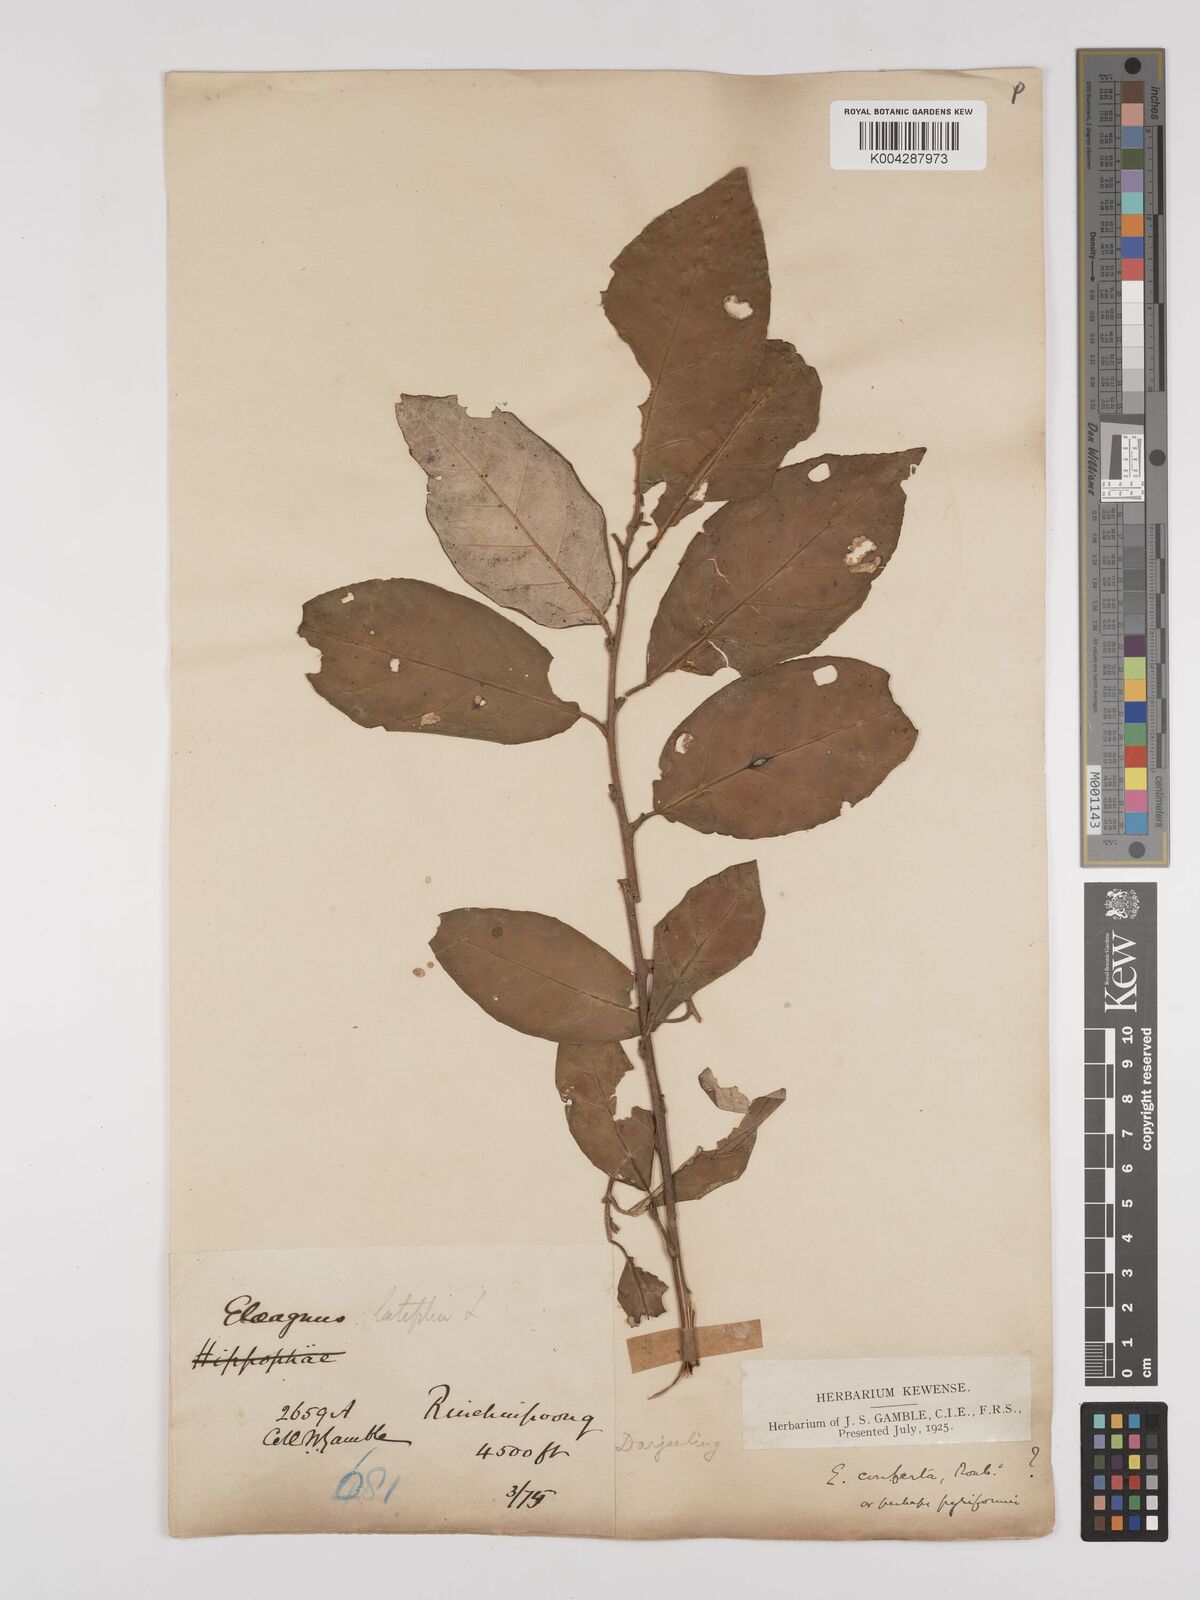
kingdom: Plantae
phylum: Tracheophyta
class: Magnoliopsida
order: Rosales
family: Elaeagnaceae
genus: Elaeagnus
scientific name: Elaeagnus latifolia
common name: Oleaster
